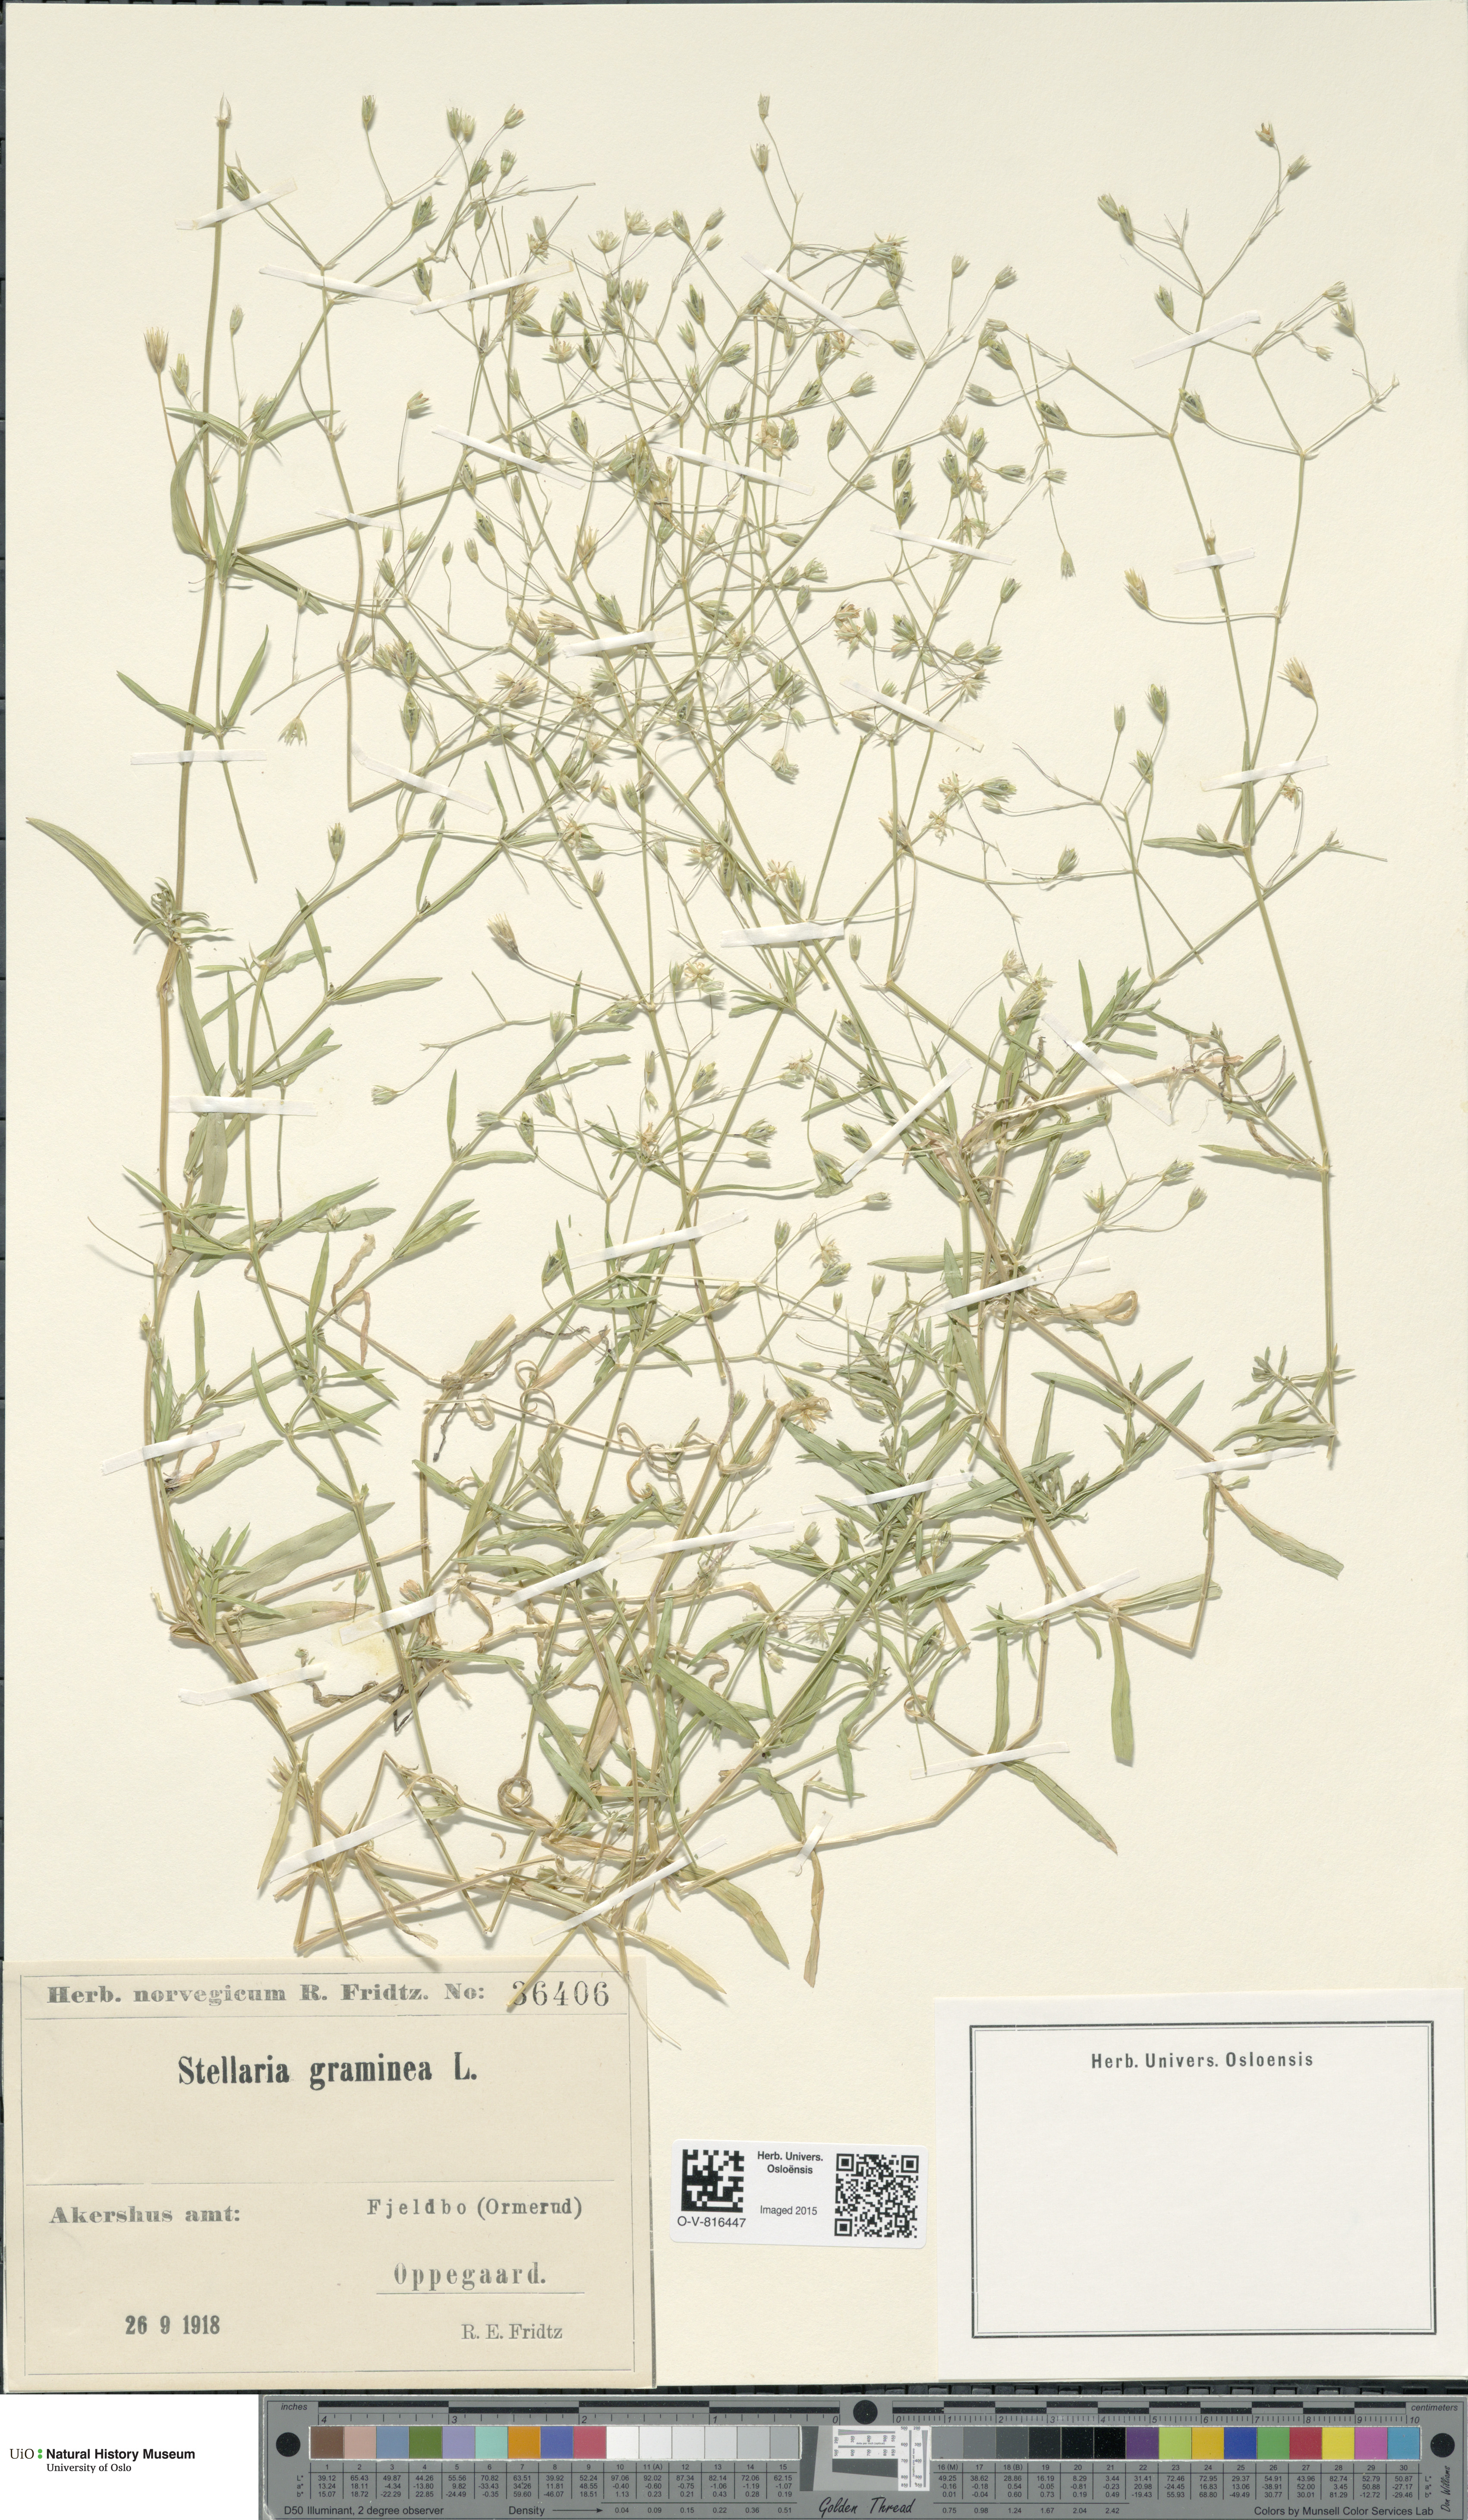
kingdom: Plantae
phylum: Tracheophyta
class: Magnoliopsida
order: Caryophyllales
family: Caryophyllaceae
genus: Stellaria
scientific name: Stellaria graminea
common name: Grass-like starwort
